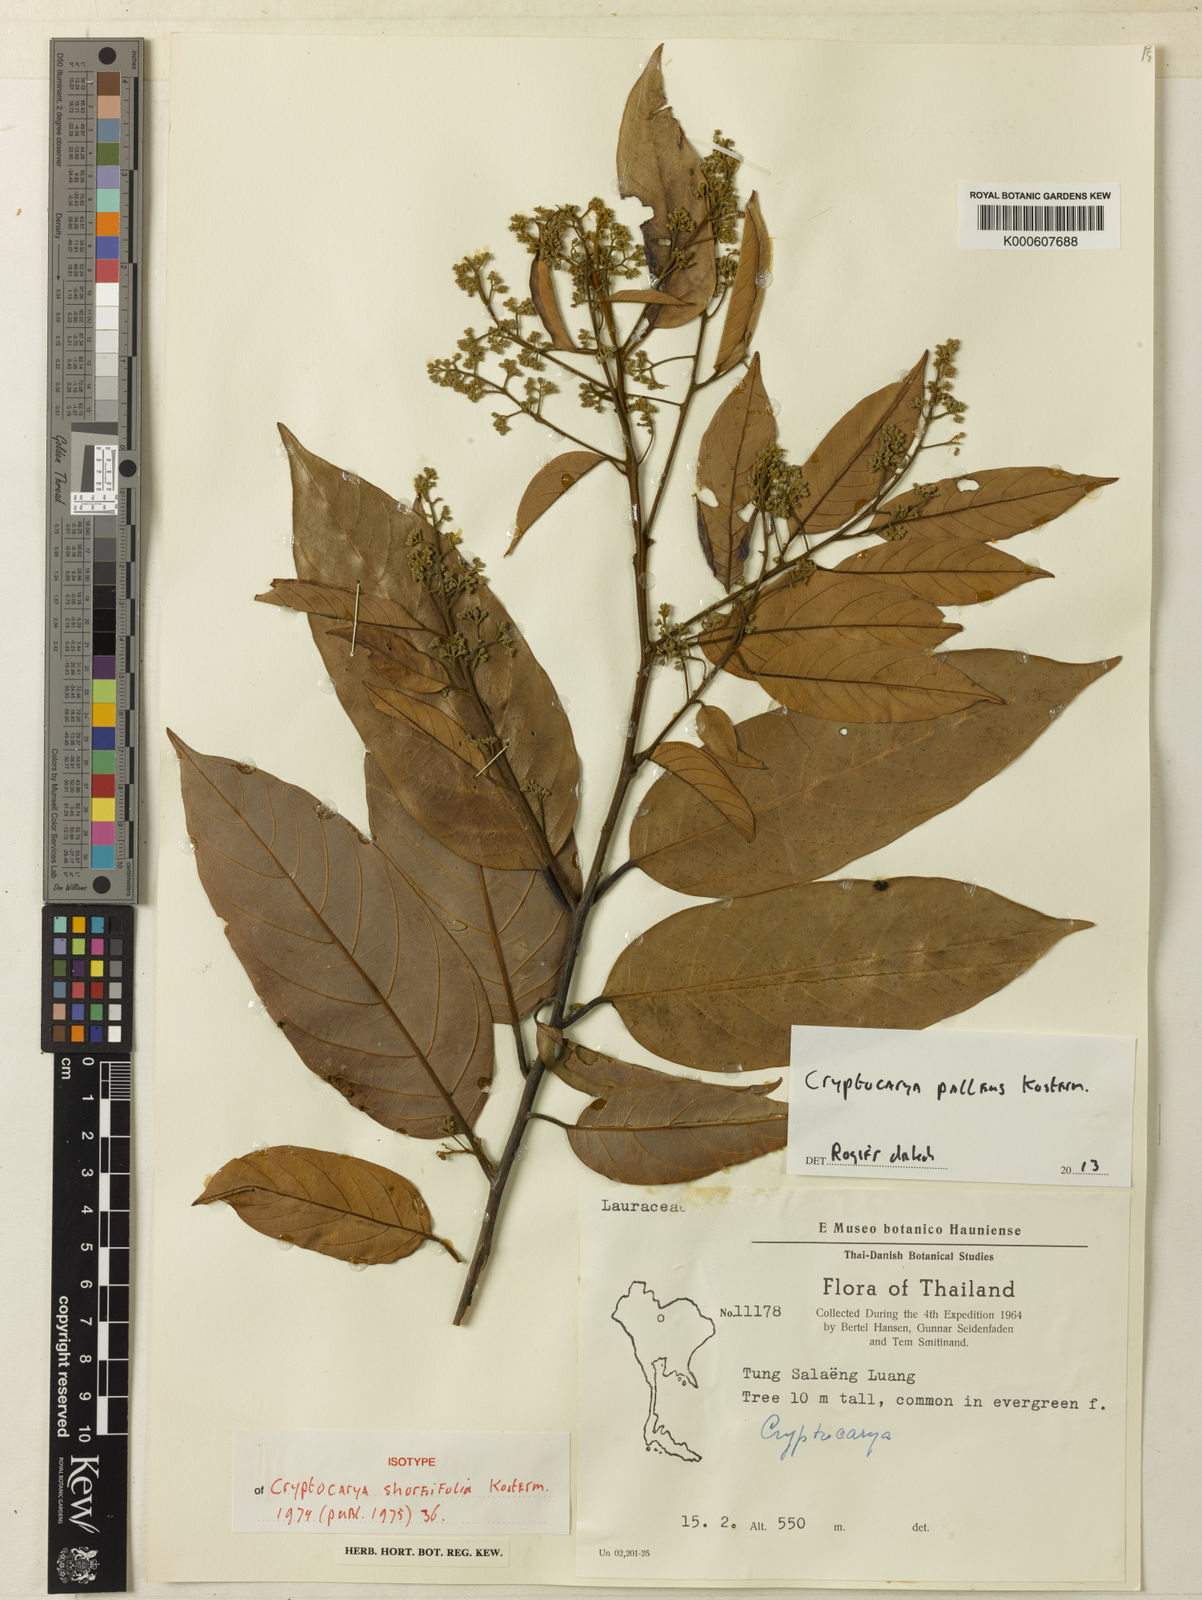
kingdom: Plantae
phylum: Tracheophyta
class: Magnoliopsida
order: Laurales
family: Lauraceae
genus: Cryptocarya
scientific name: Cryptocarya pallens
